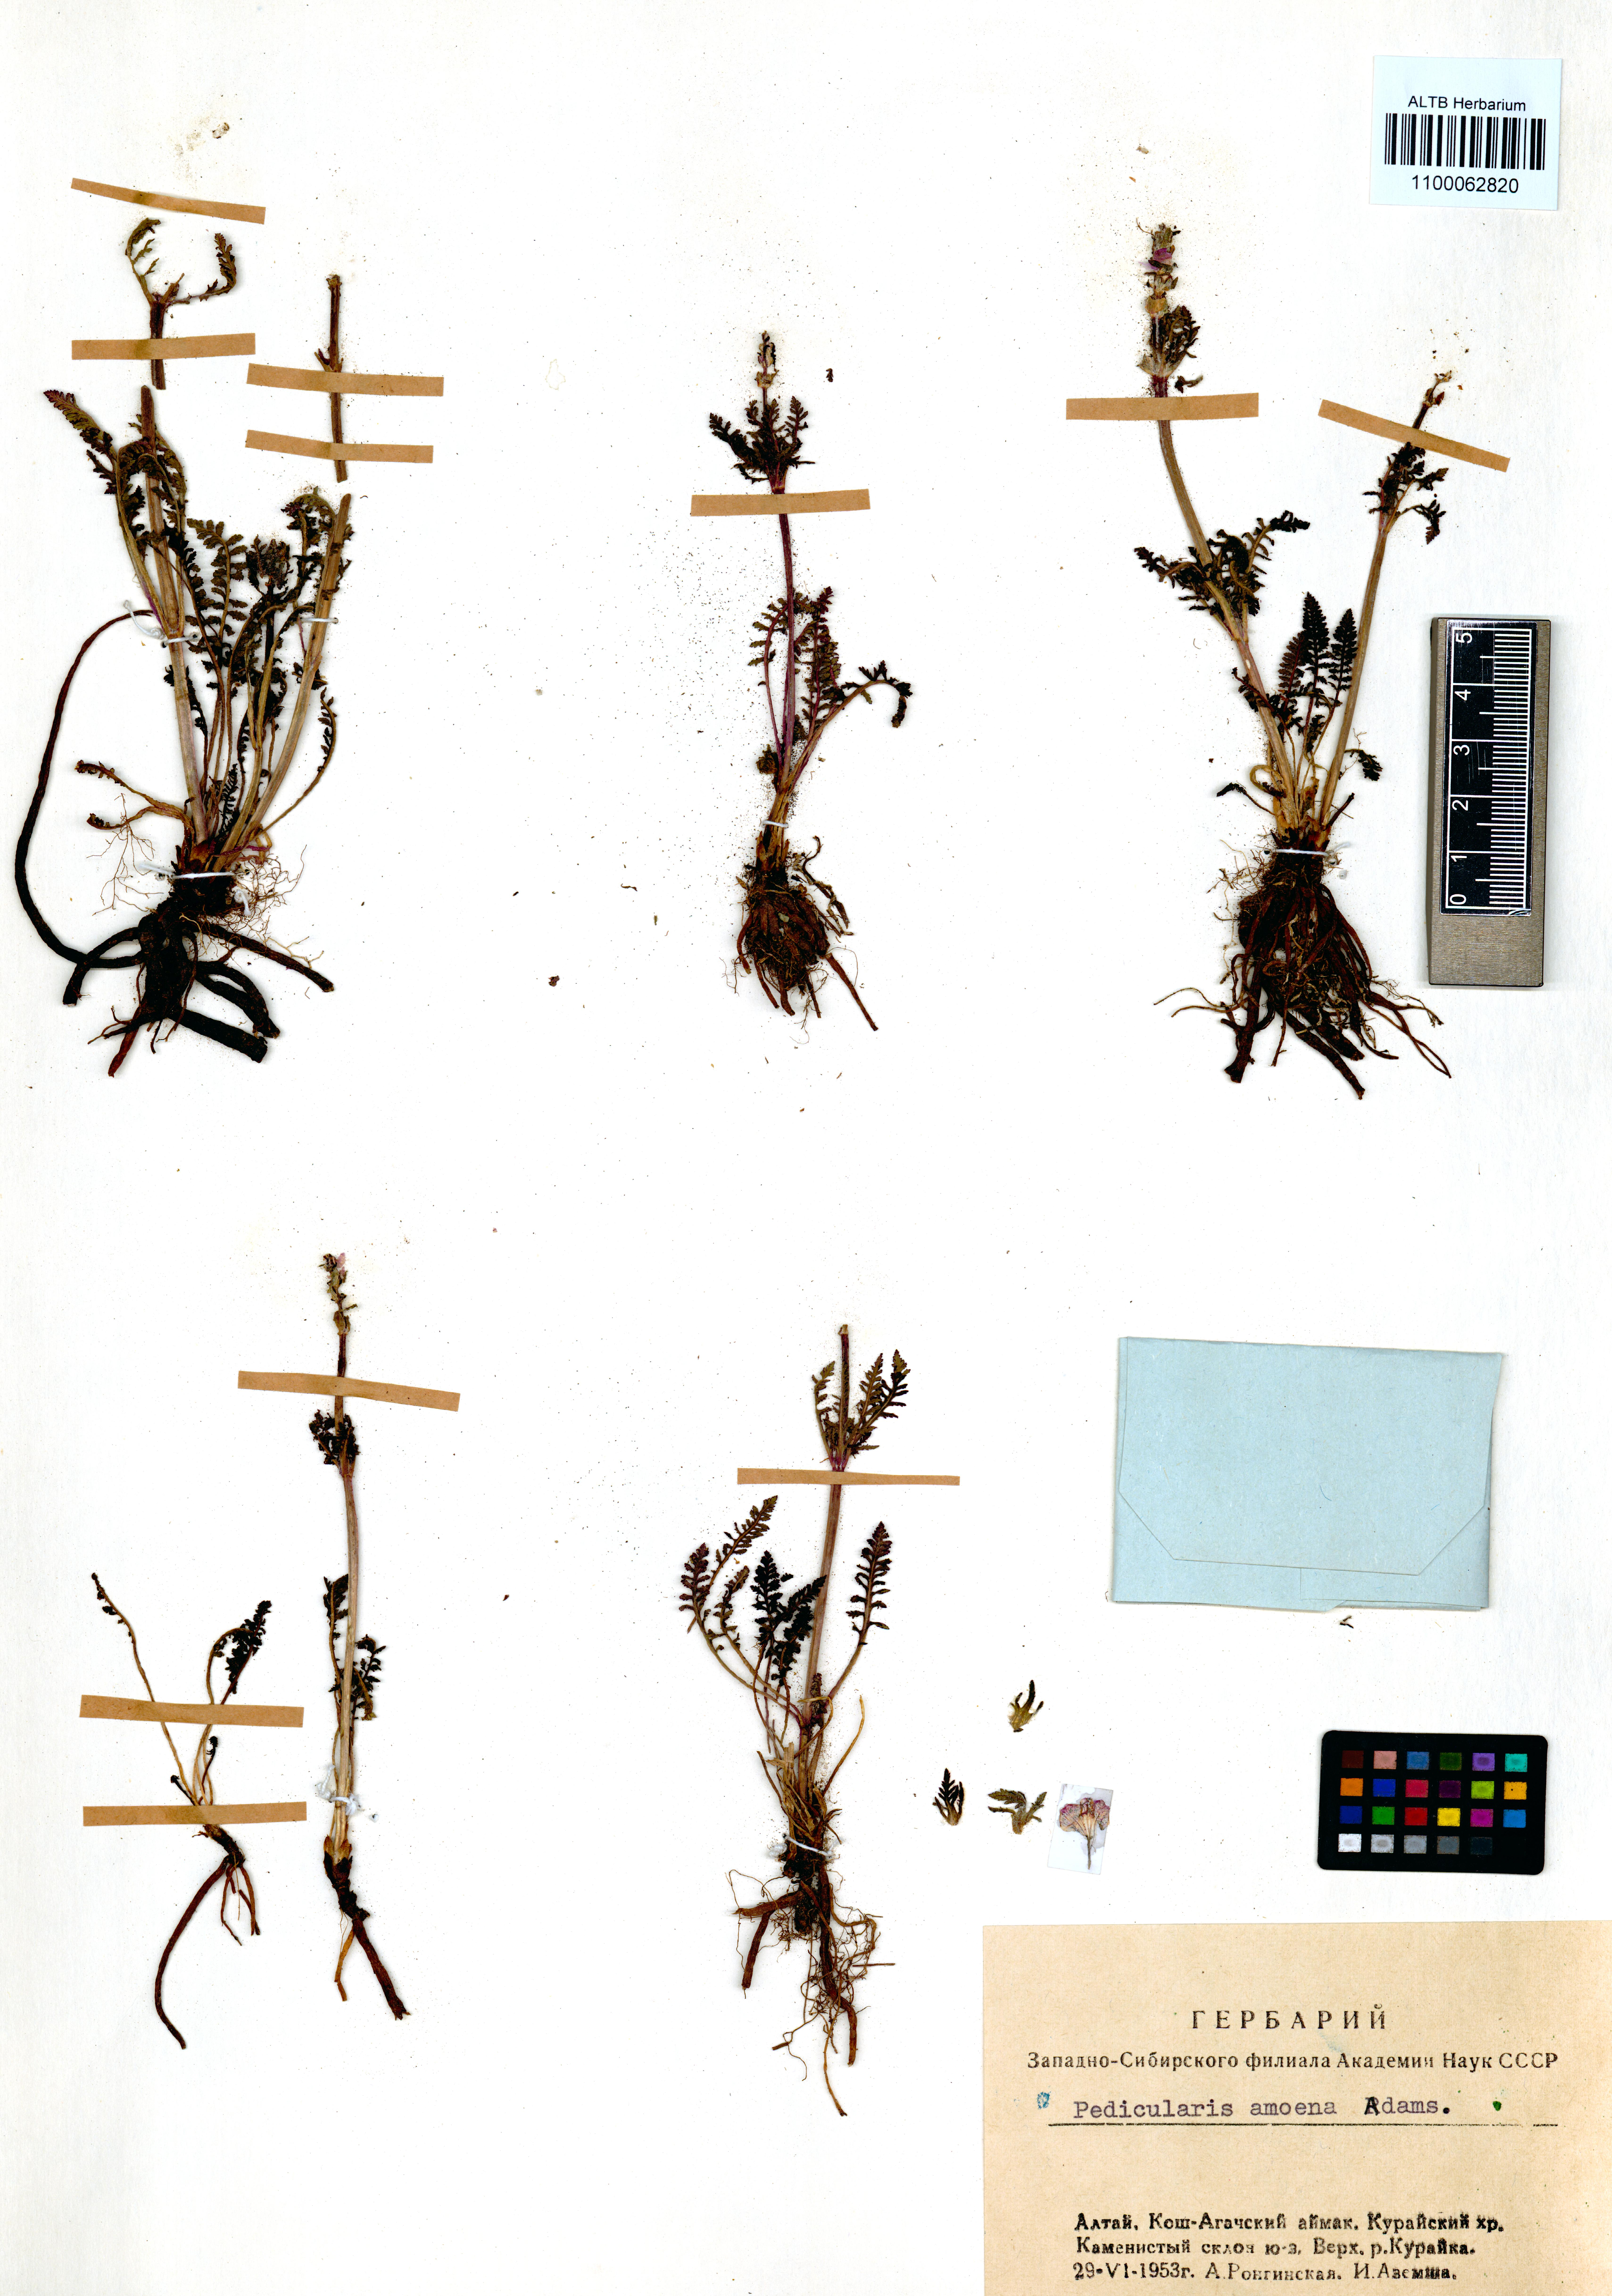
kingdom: Plantae
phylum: Tracheophyta
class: Magnoliopsida
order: Lamiales
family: Orobanchaceae
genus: Pedicularis
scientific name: Pedicularis amoena
